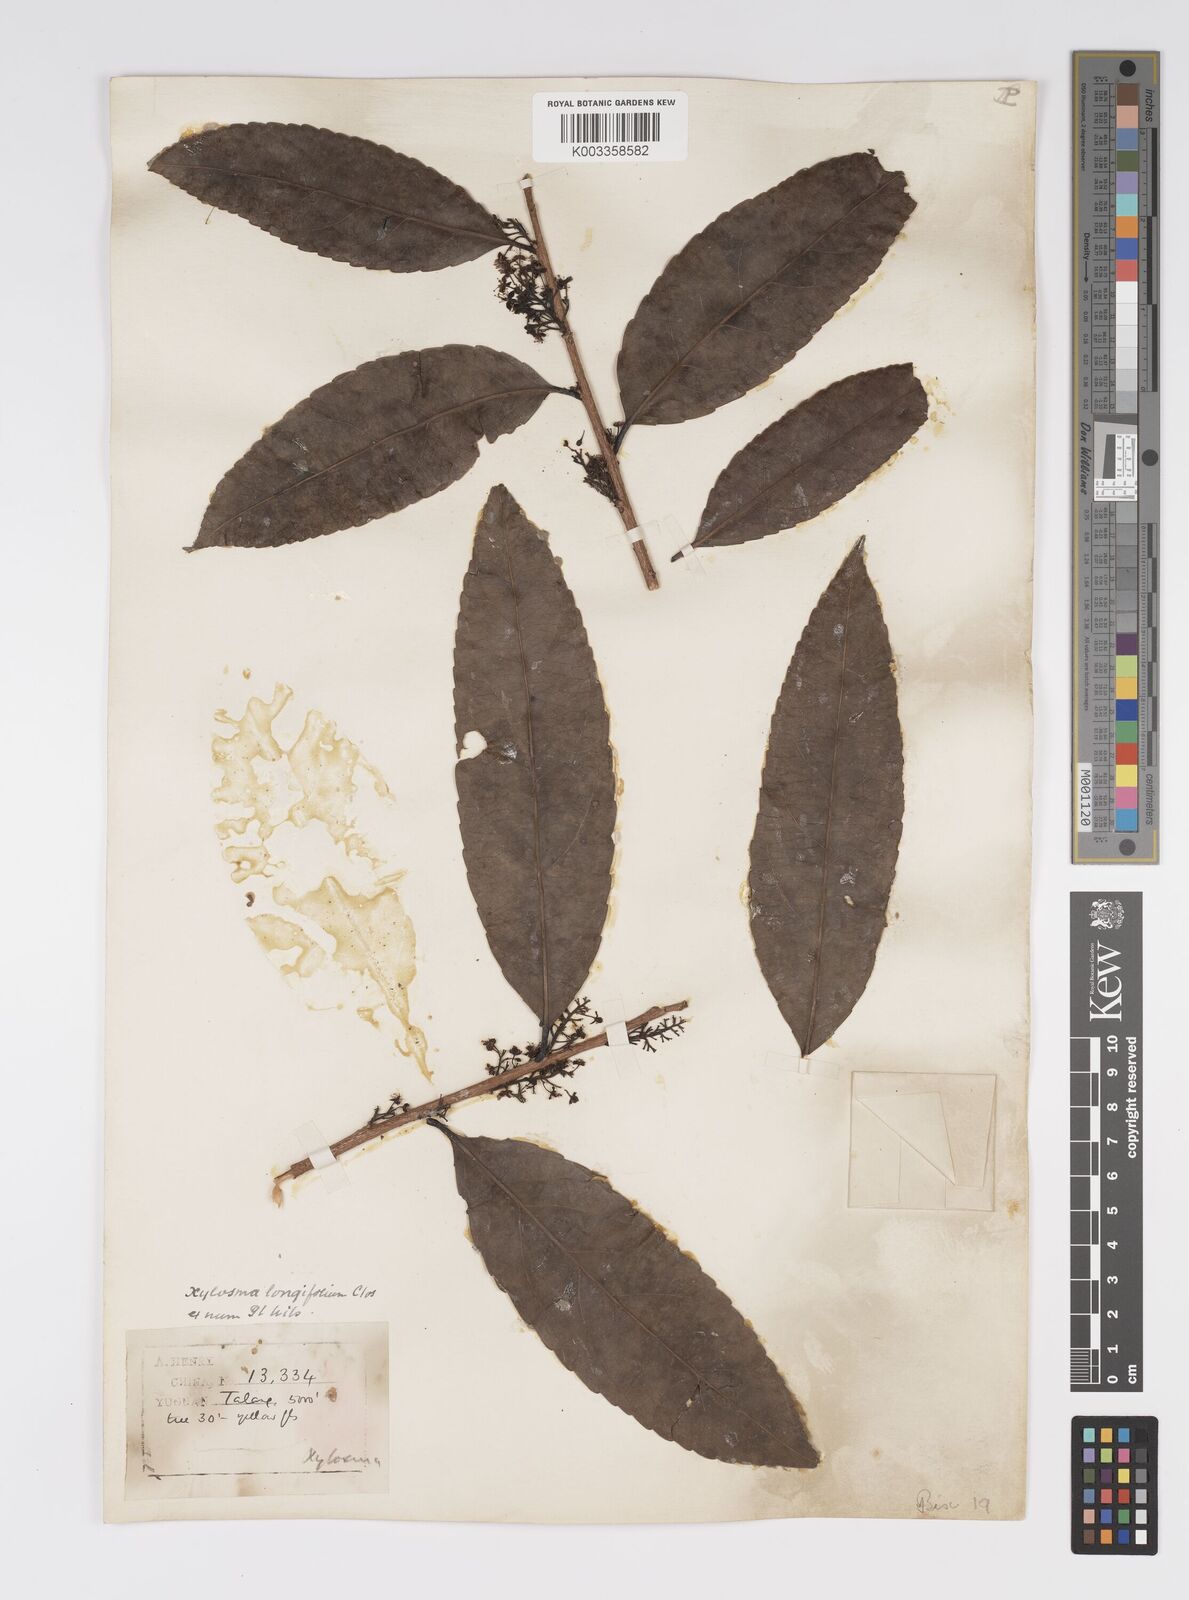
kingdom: Plantae
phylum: Tracheophyta
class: Magnoliopsida
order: Malpighiales
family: Salicaceae
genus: Xylosma
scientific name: Xylosma longifolia
